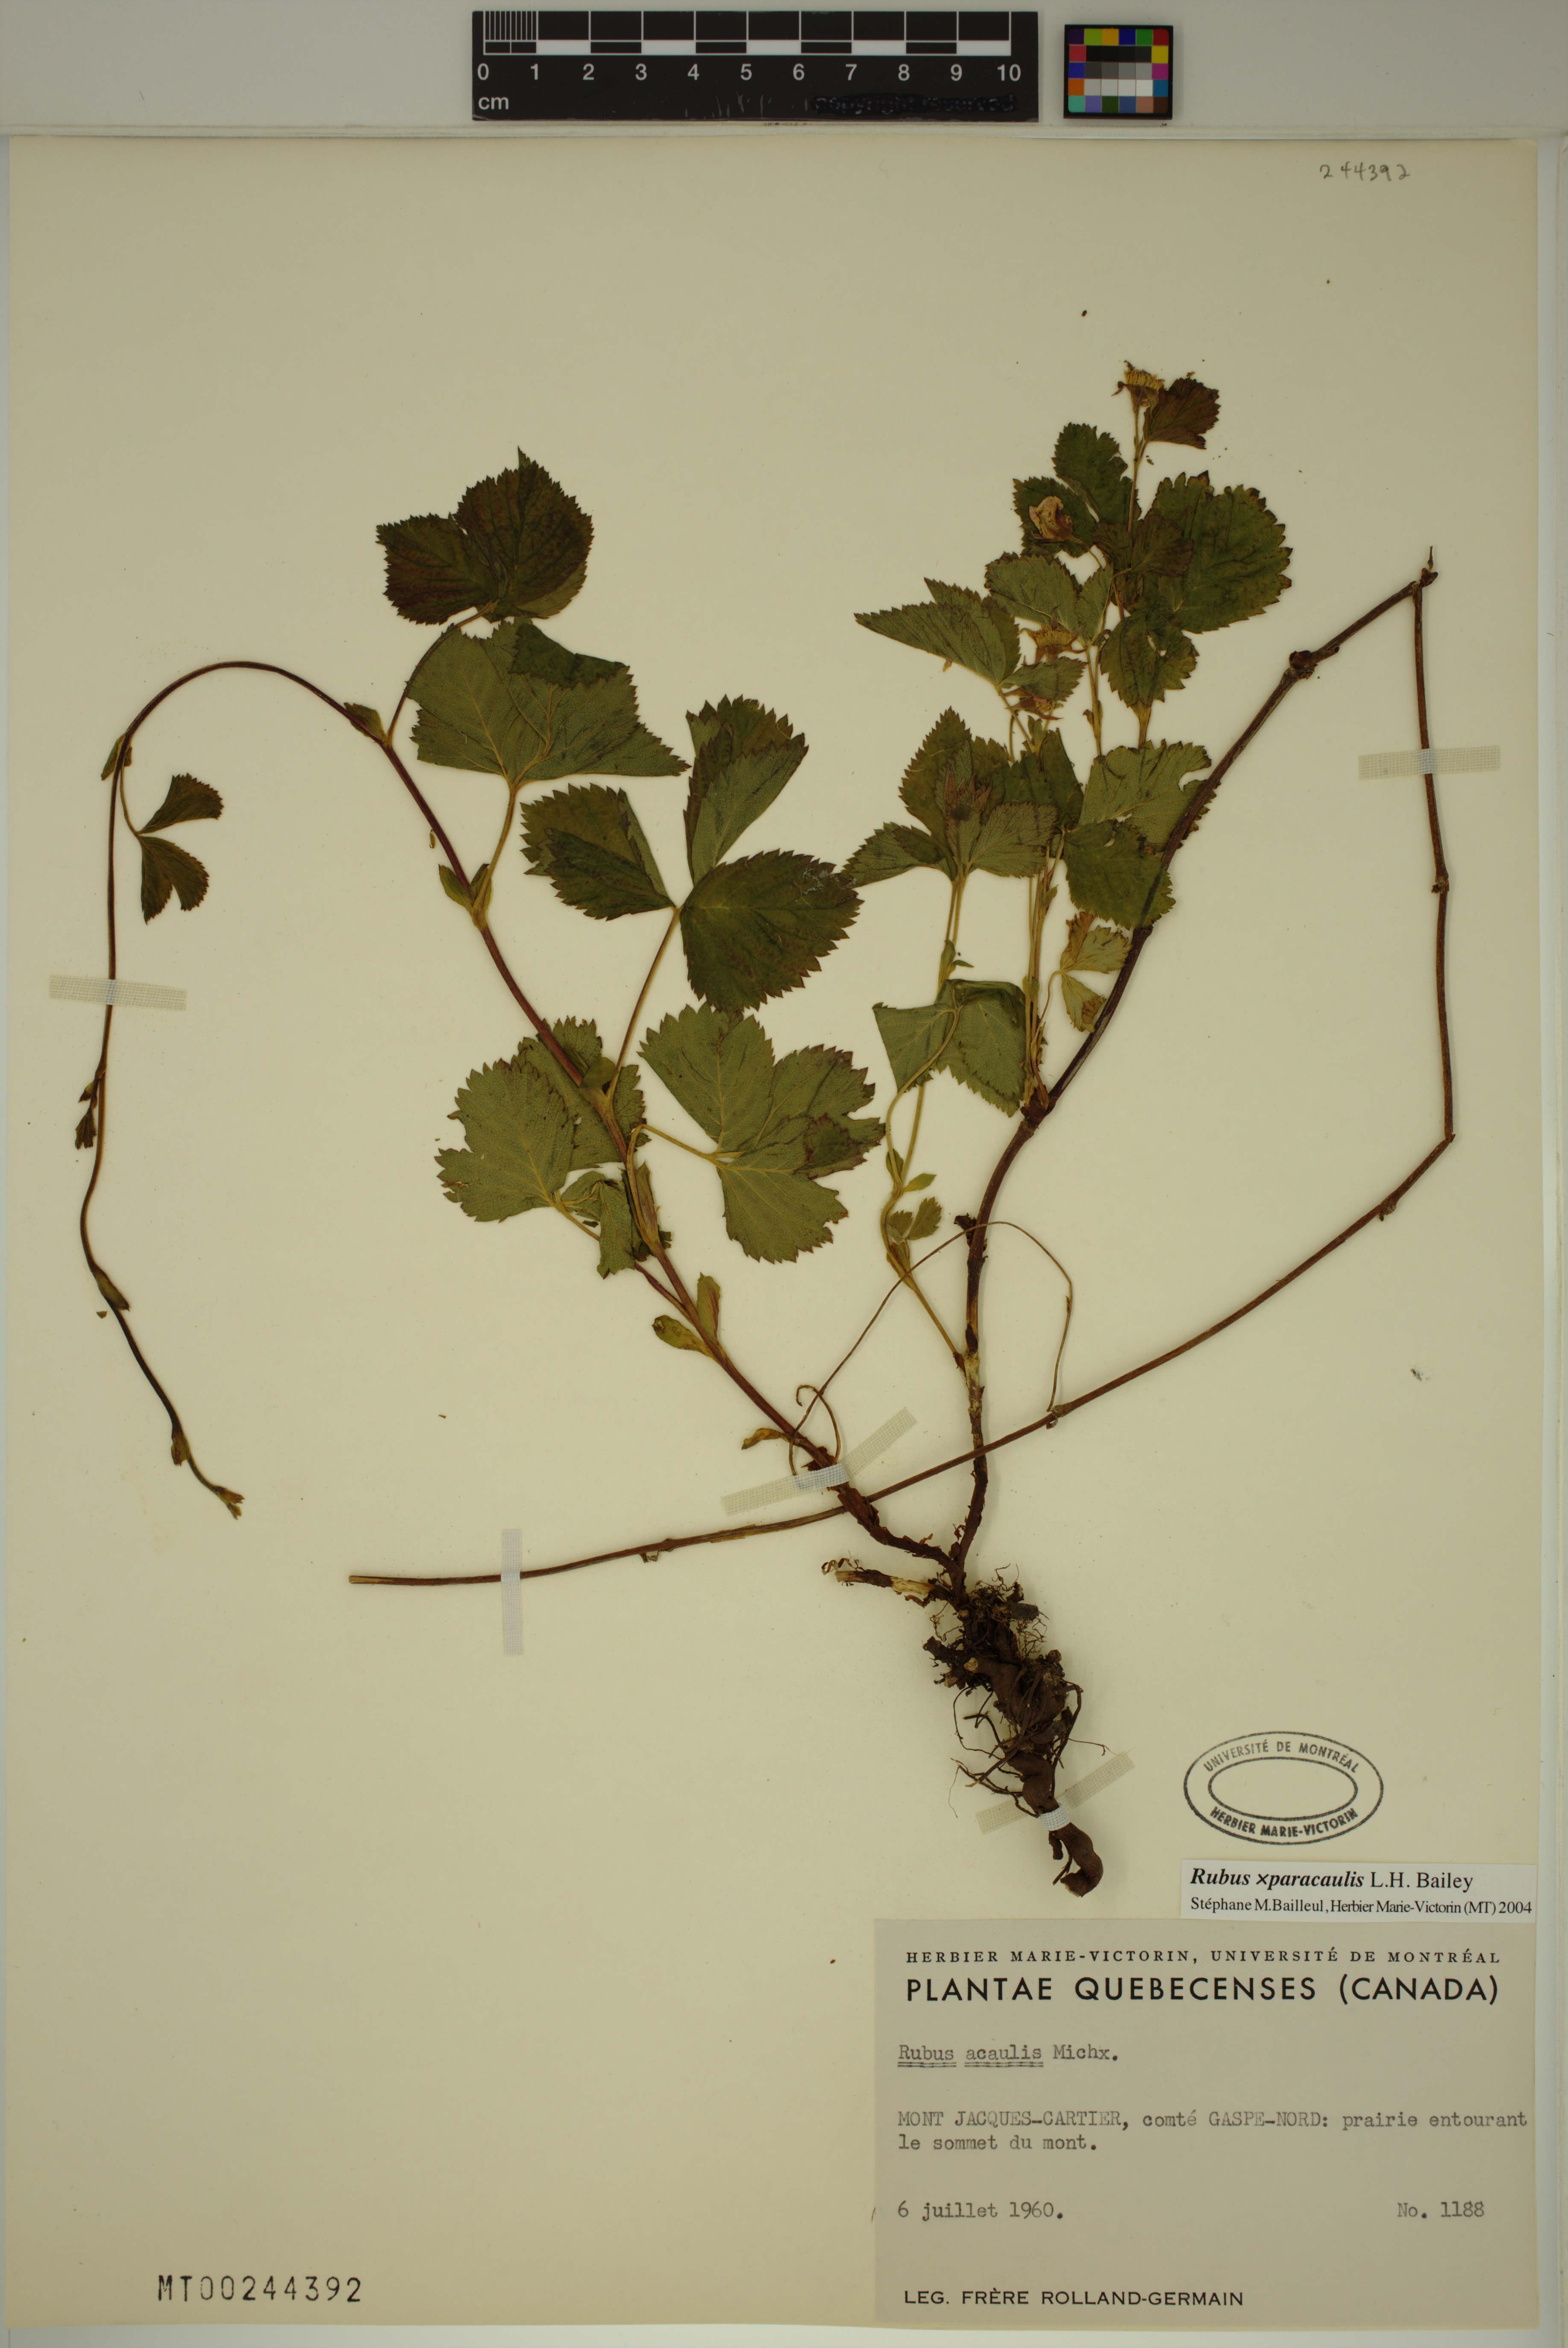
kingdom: Plantae
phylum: Tracheophyta
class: Magnoliopsida
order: Rosales
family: Rosaceae
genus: Rubus
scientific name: Rubus paracaulis
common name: Dwarf white-flowered raspberry
